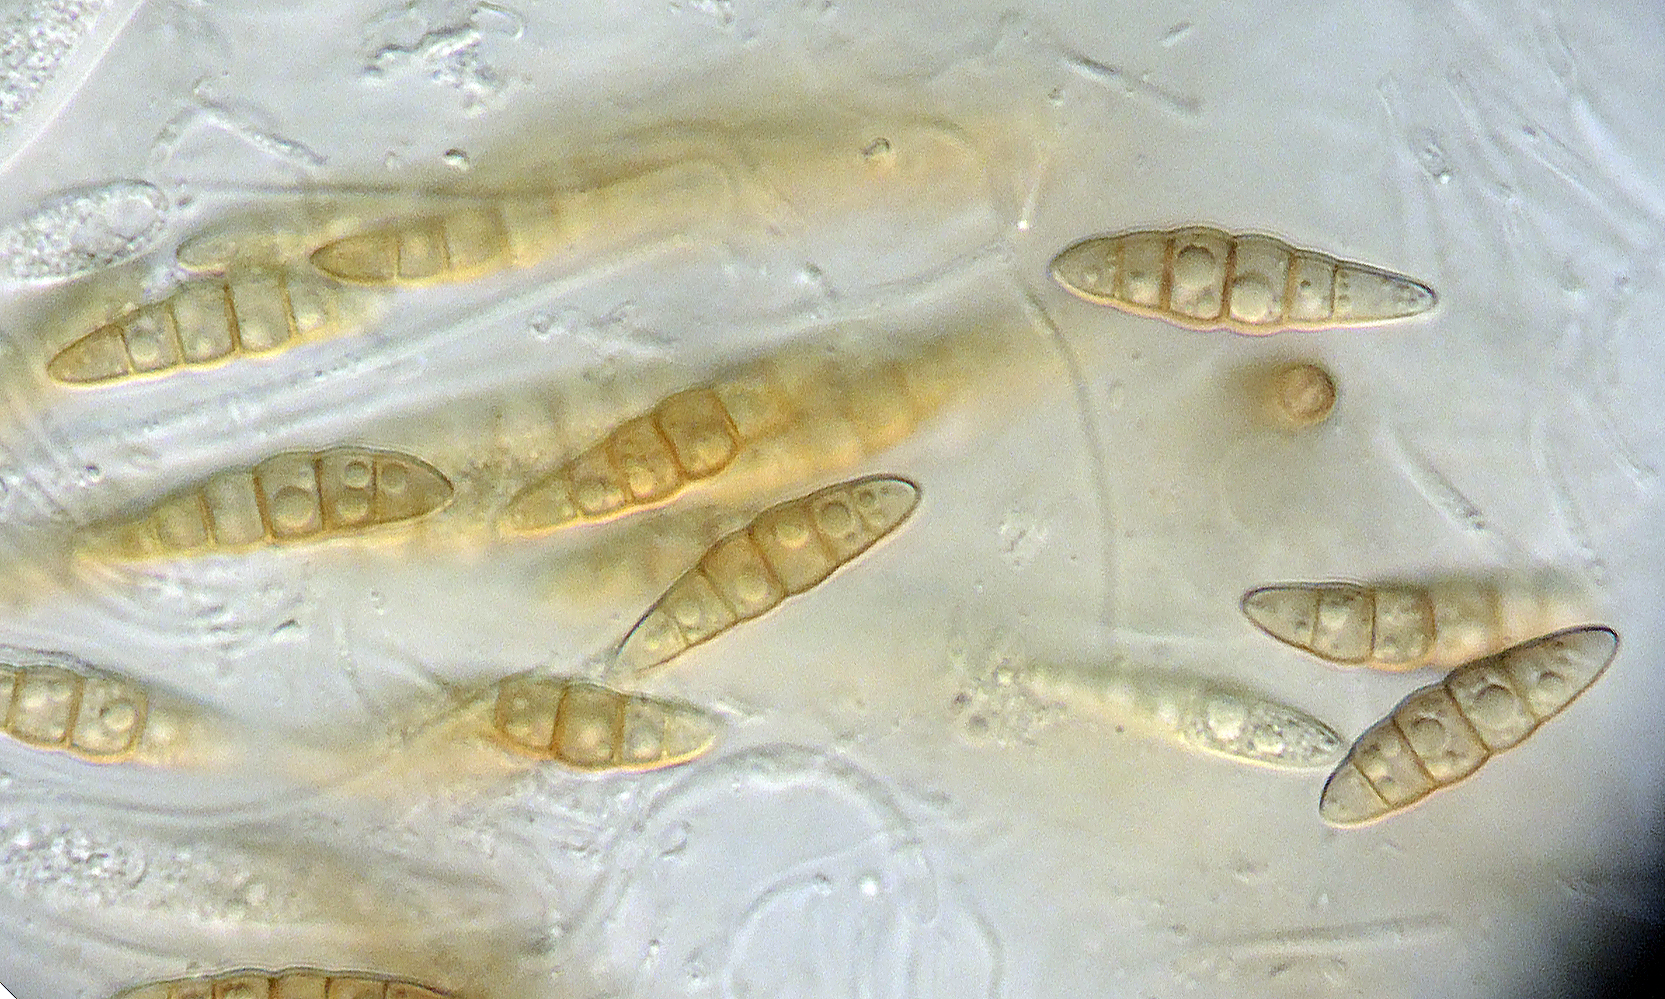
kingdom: Fungi
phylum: Ascomycota
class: Dothideomycetes
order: Pleosporales
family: Lophiostomataceae
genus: Sigarispora
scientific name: Sigarispora caudata
